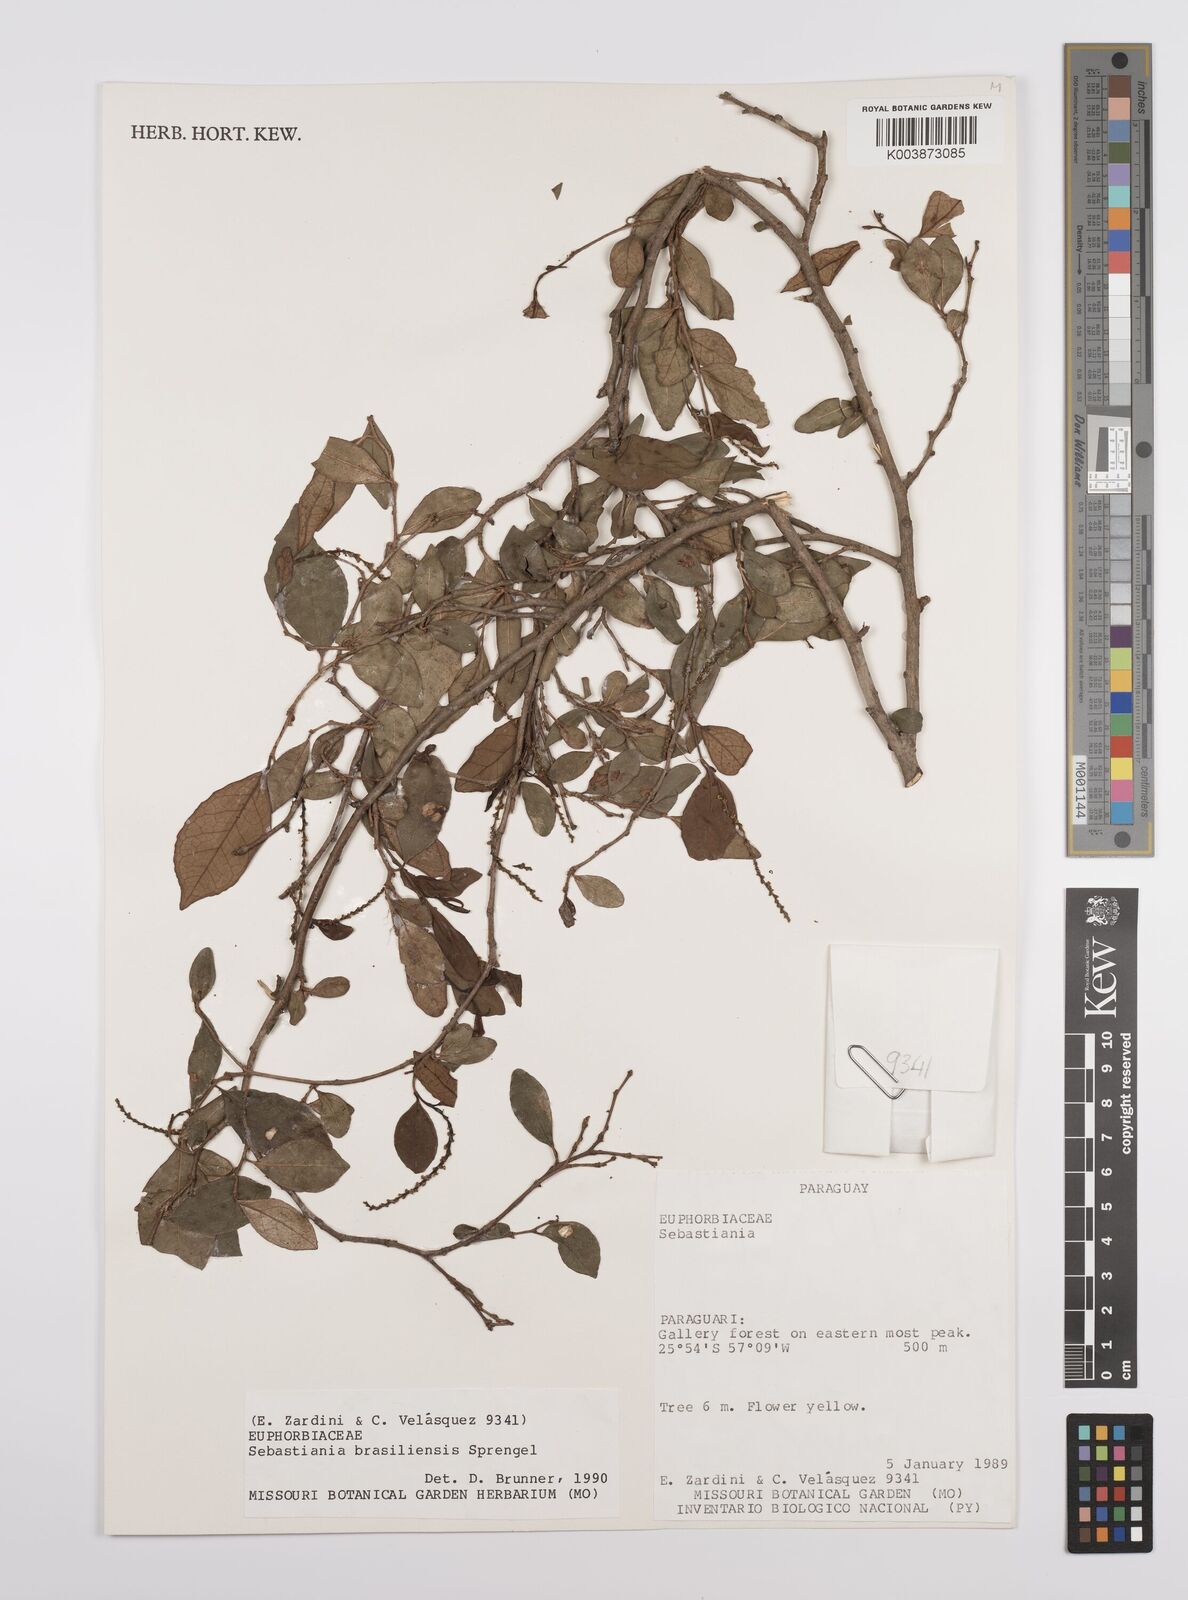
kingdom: Plantae
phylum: Tracheophyta
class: Magnoliopsida
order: Malpighiales
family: Euphorbiaceae
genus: Sebastiania
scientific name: Sebastiania brasiliensis
